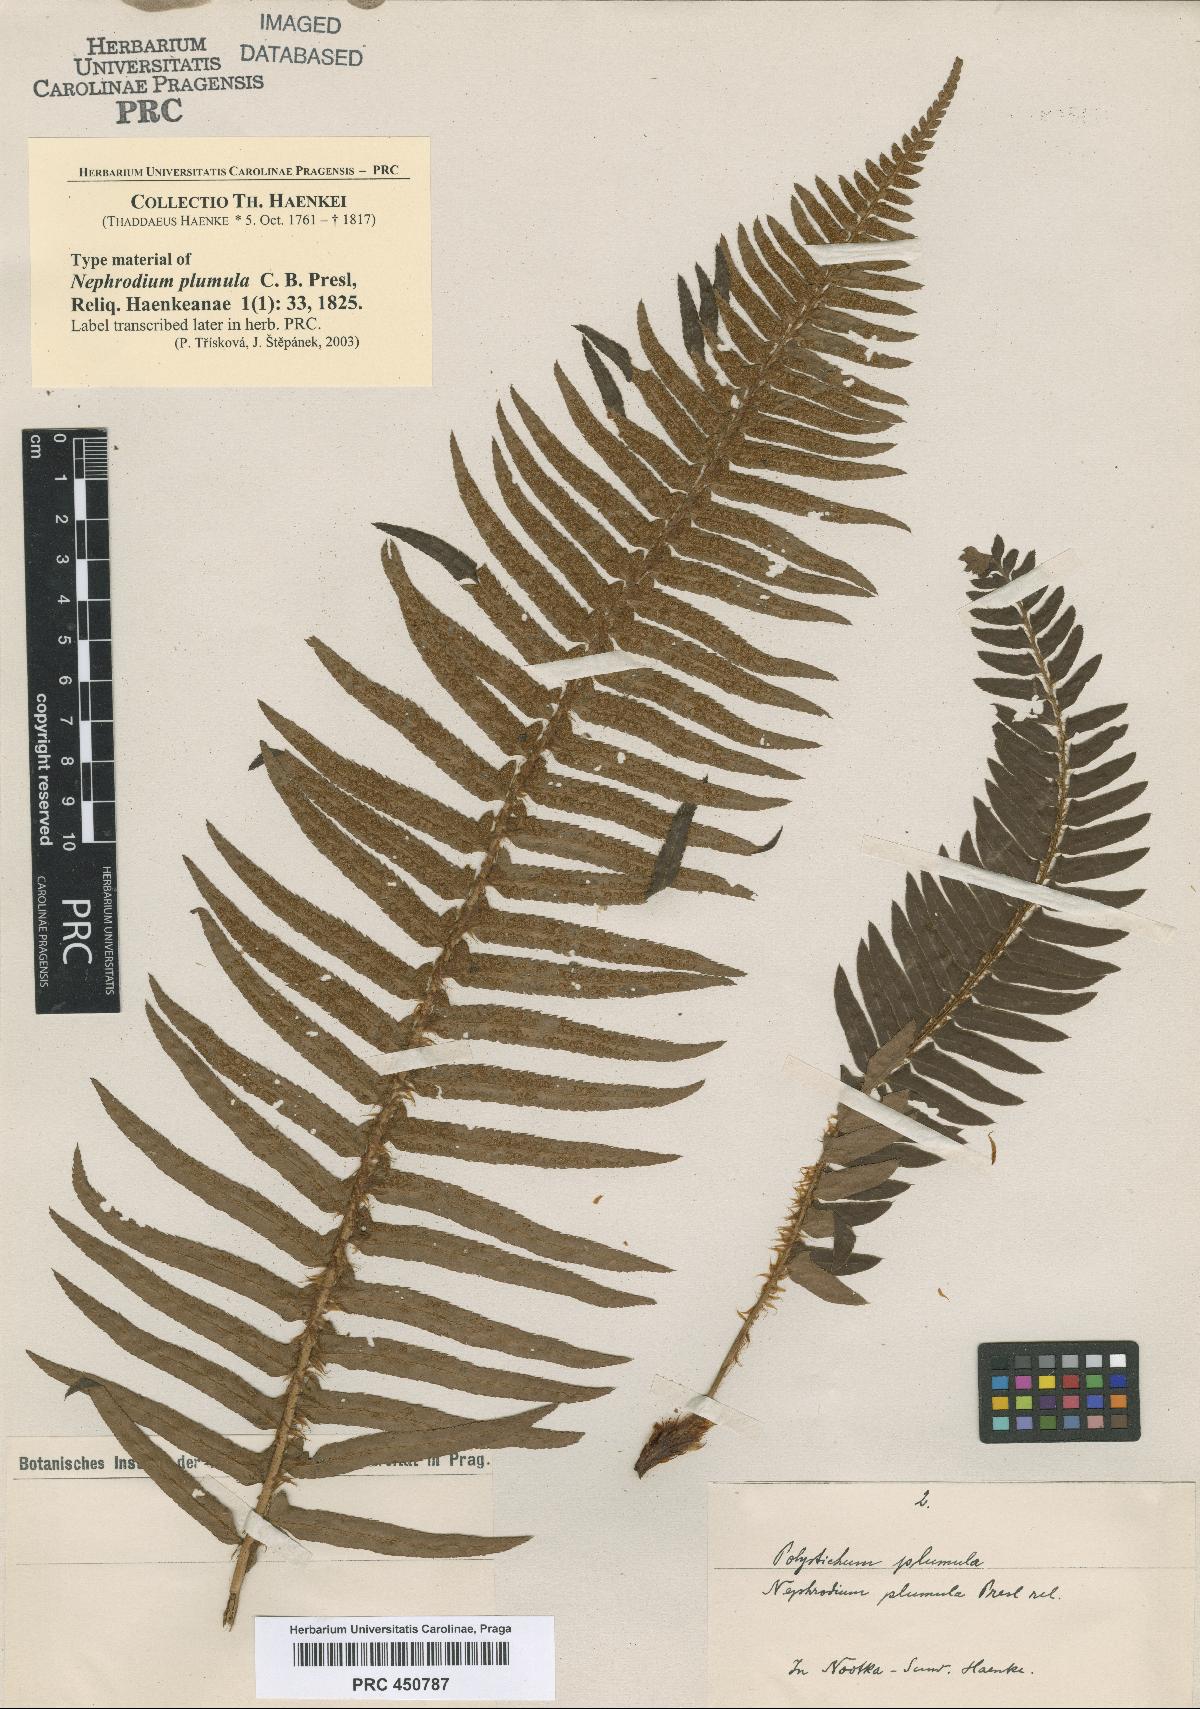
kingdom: Plantae
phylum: Tracheophyta
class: Polypodiopsida
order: Polypodiales
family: Dryopteridaceae
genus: Polystichum
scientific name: Polystichum munitum
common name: Western sword-fern
